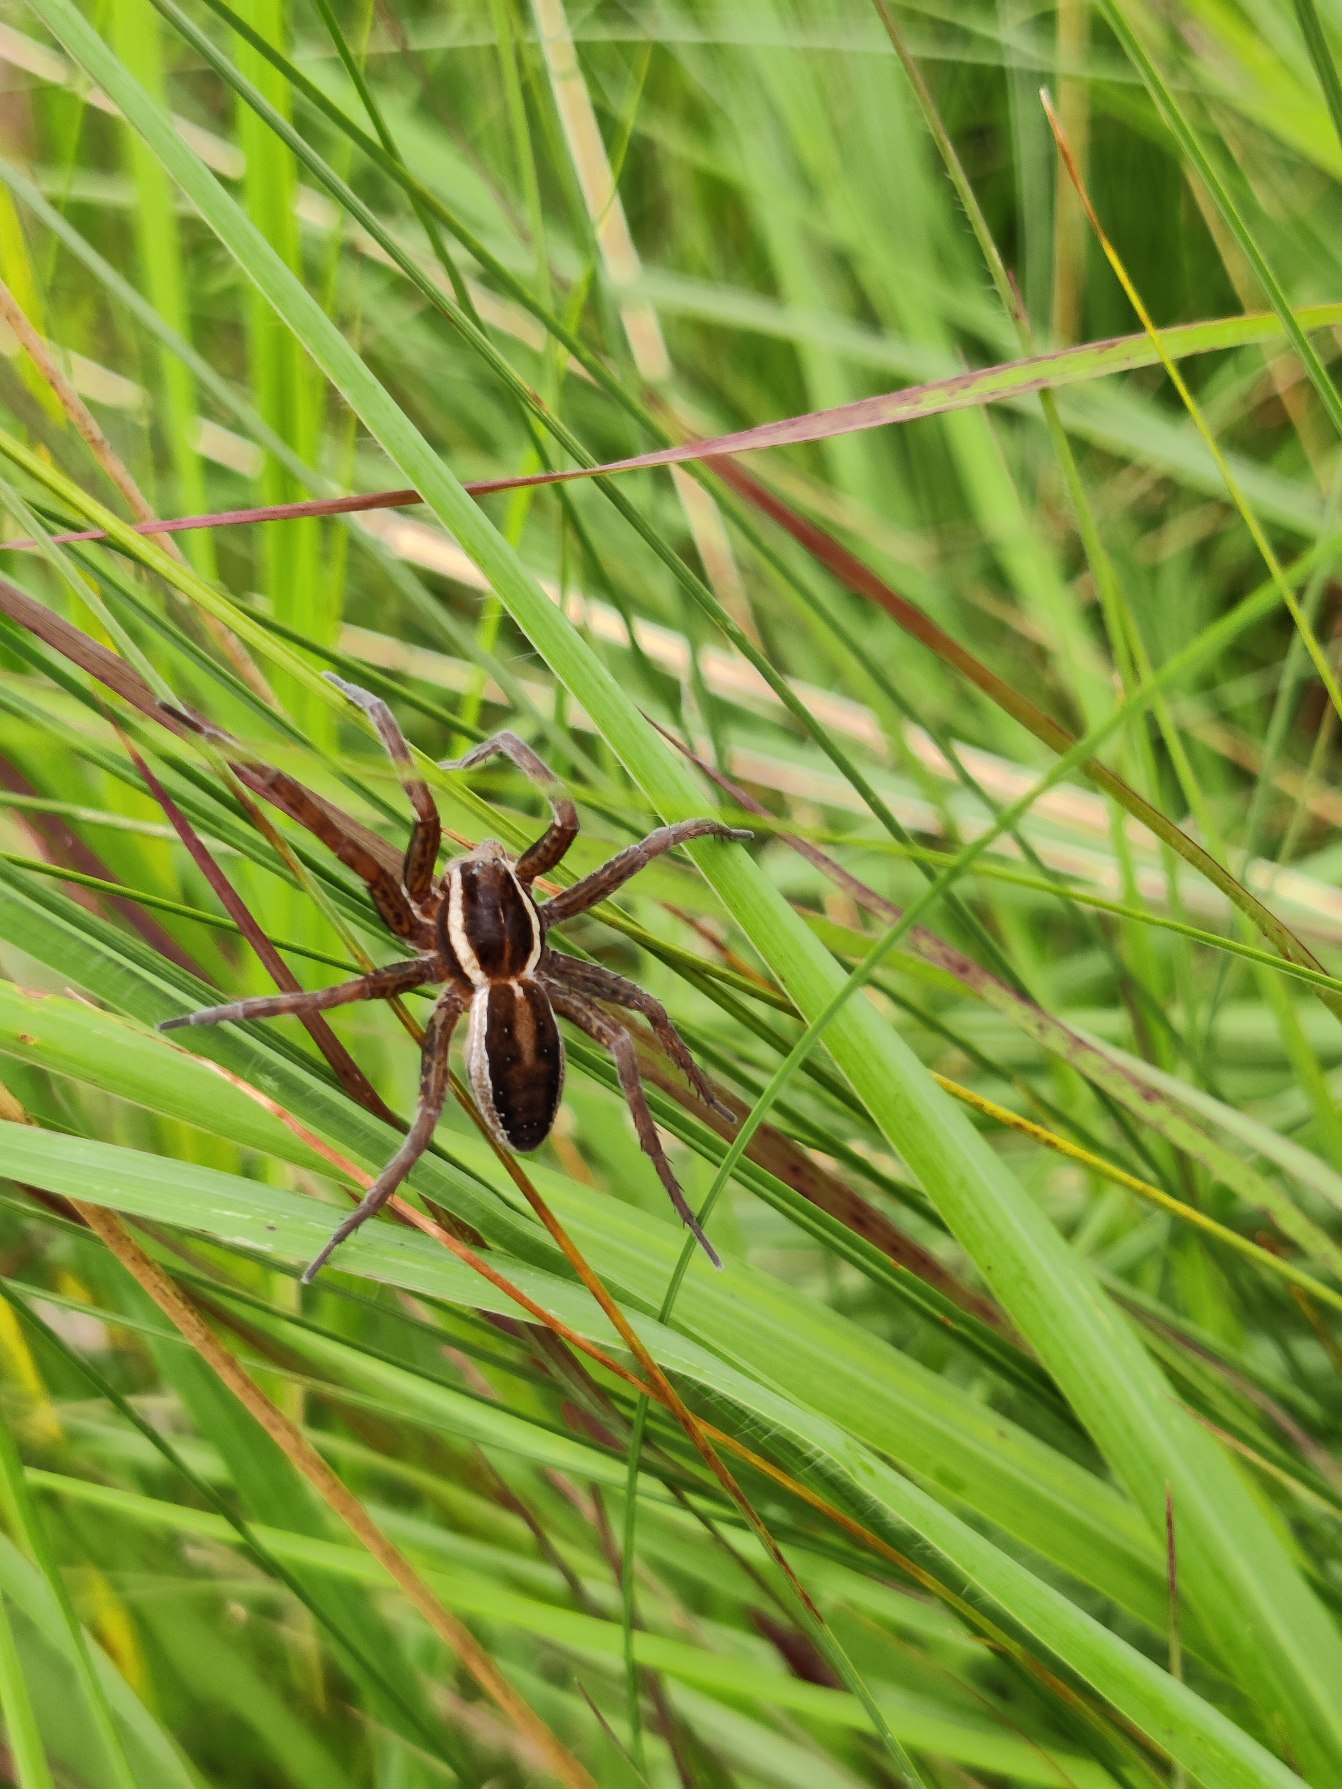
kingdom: Animalia
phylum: Arthropoda
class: Arachnida
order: Araneae
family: Pisauridae
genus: Dolomedes
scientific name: Dolomedes
